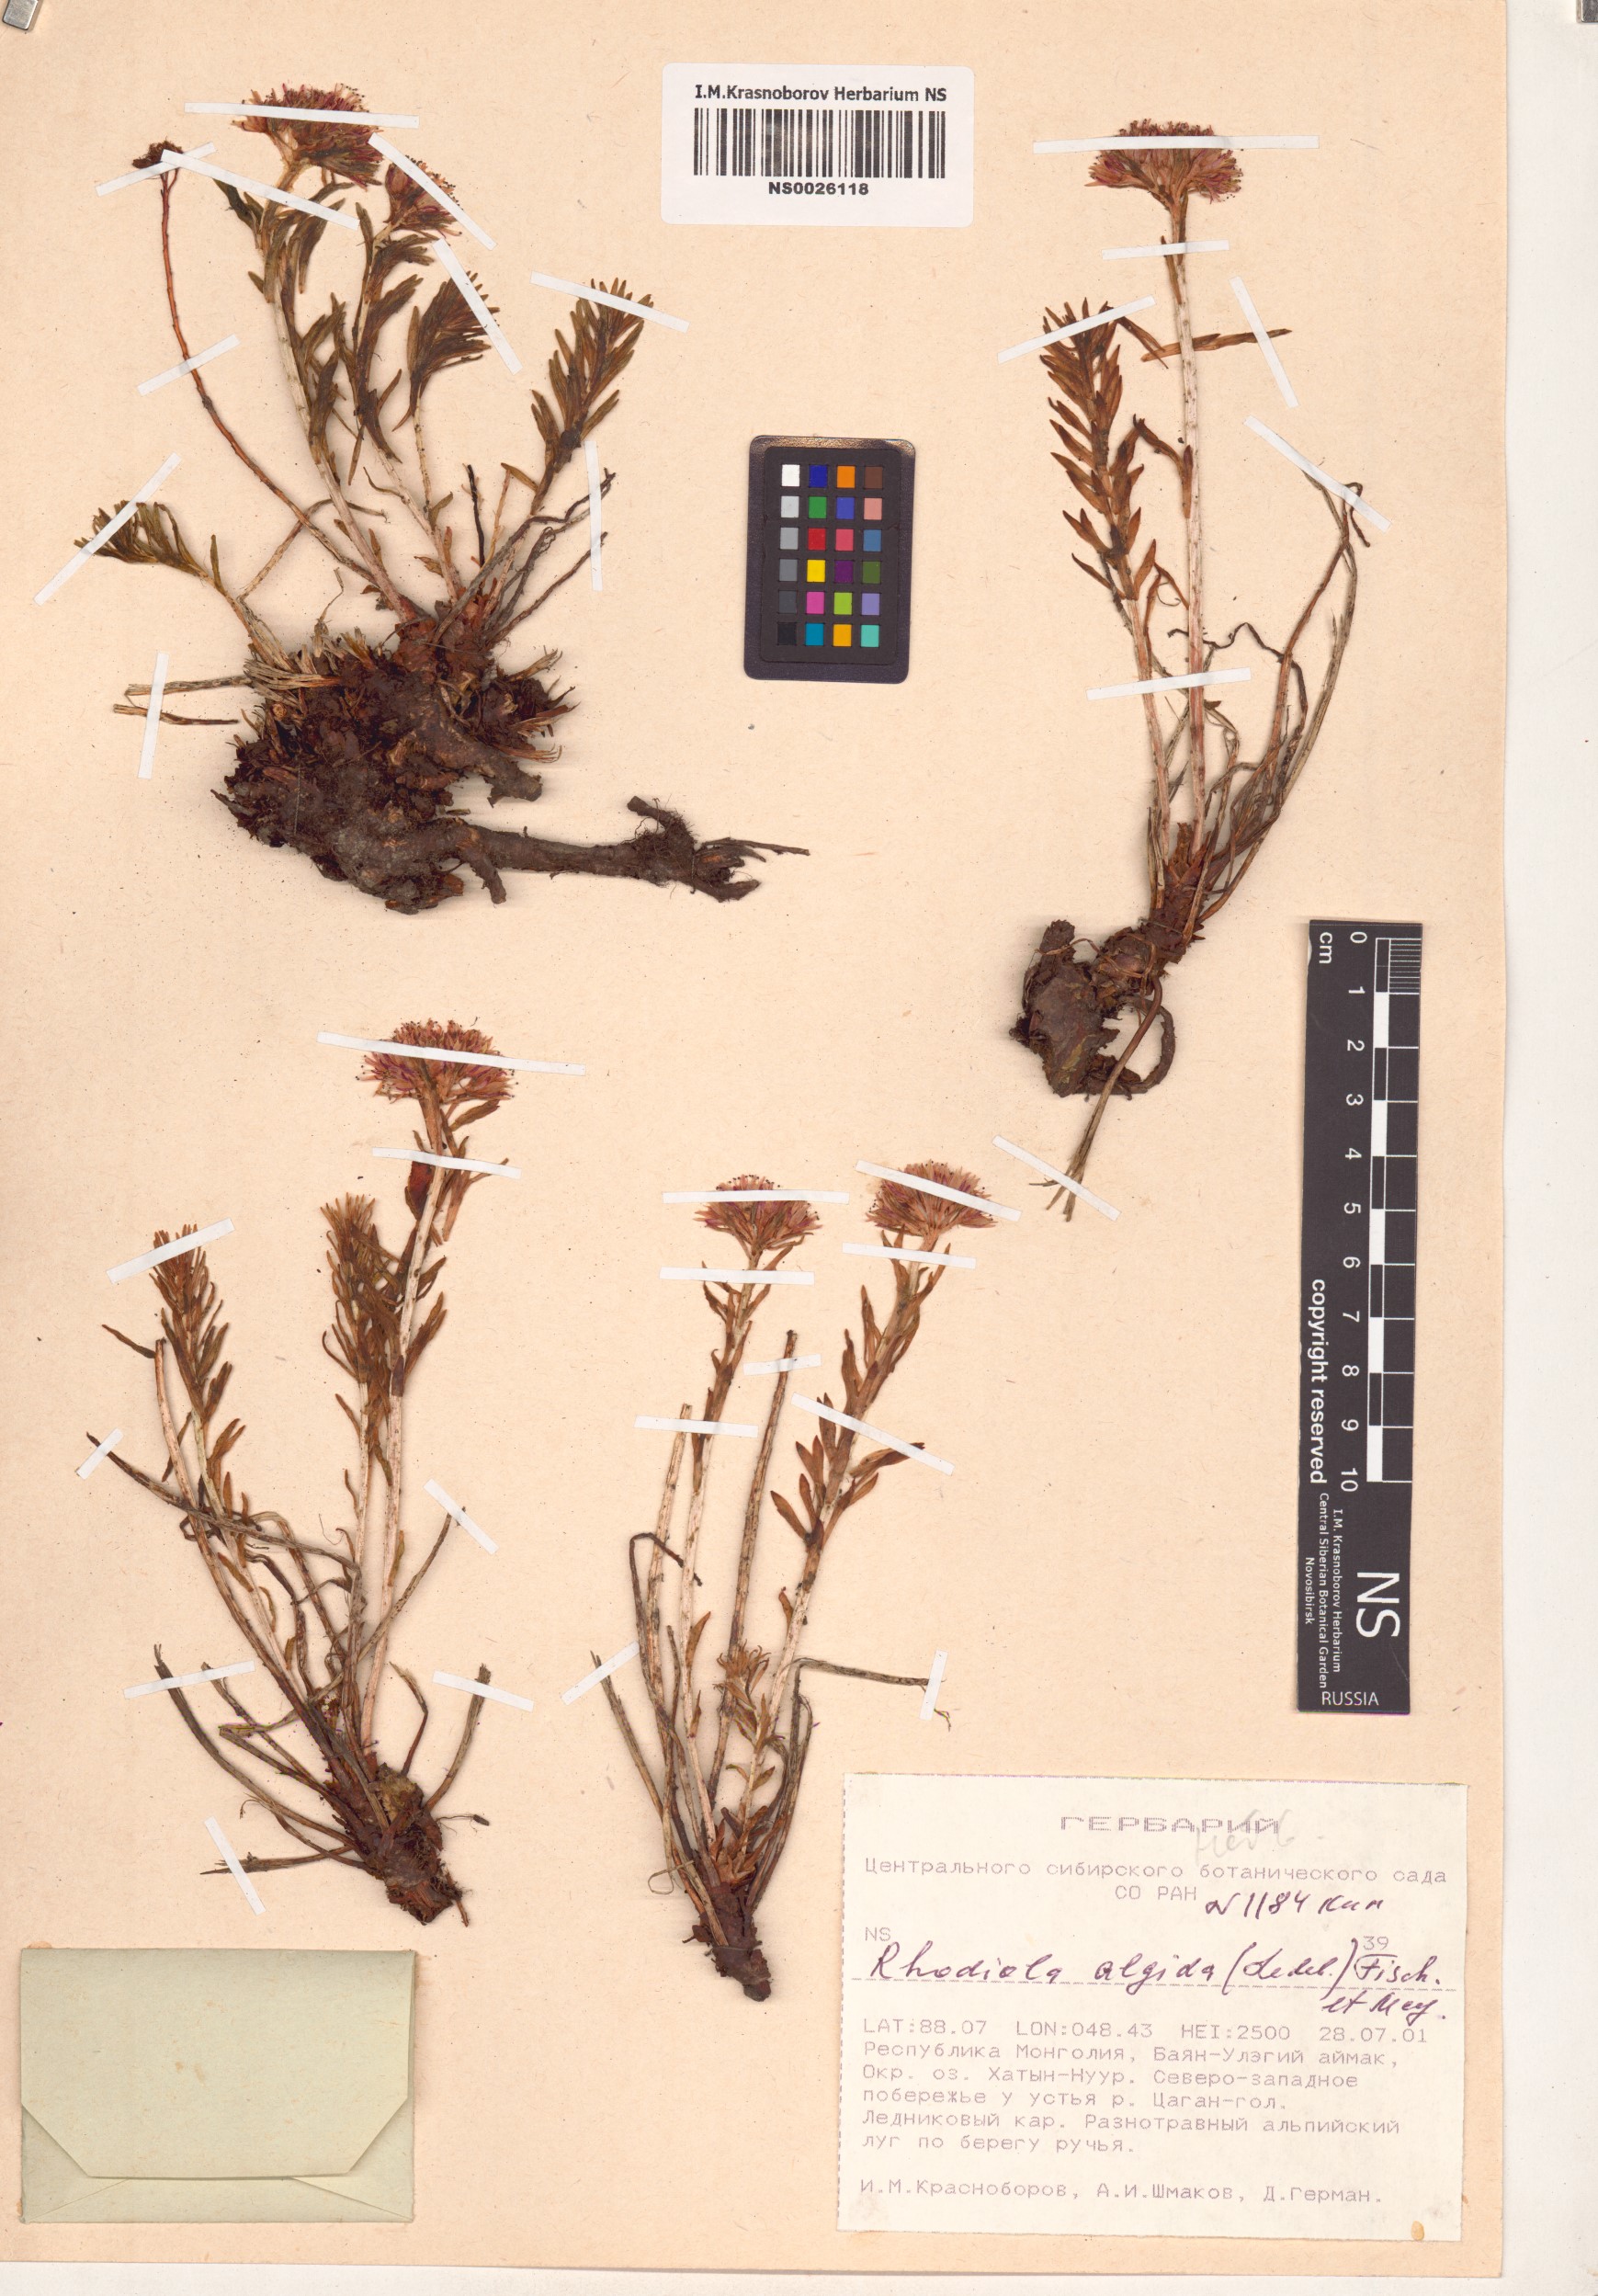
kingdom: Plantae
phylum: Tracheophyta
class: Magnoliopsida
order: Saxifragales
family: Crassulaceae
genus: Rhodiola
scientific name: Rhodiola algida
